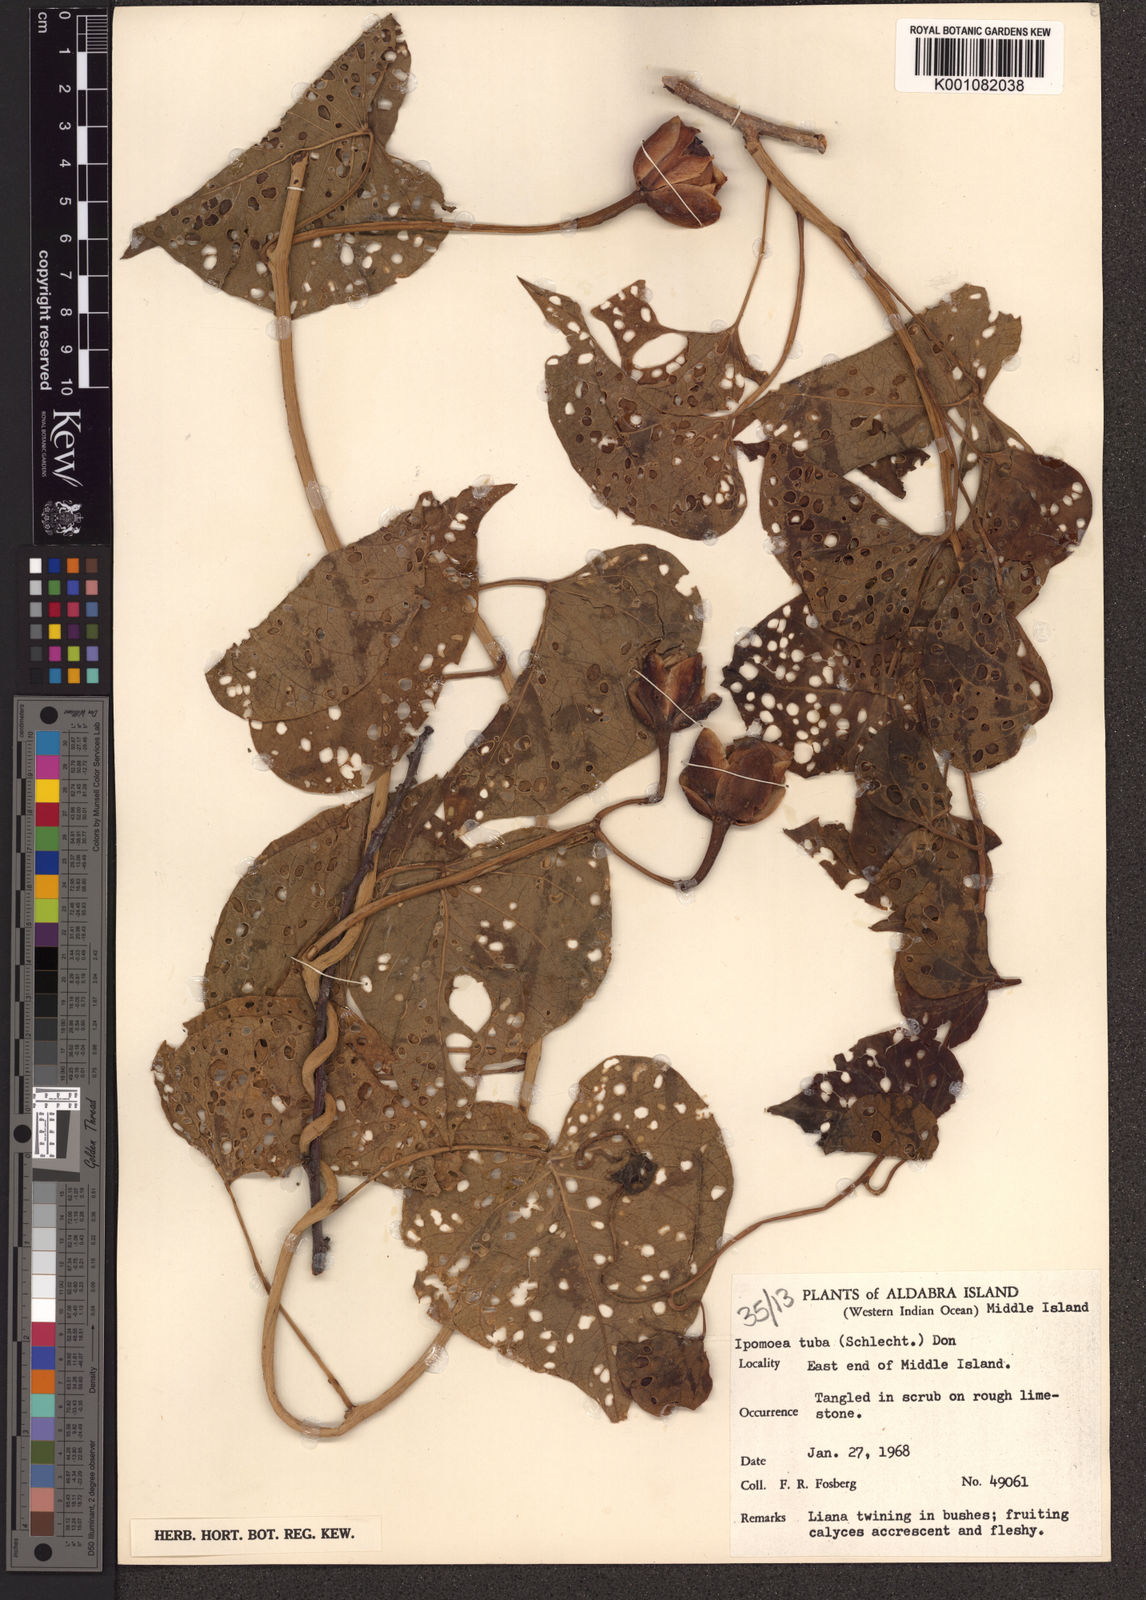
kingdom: Plantae
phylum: Tracheophyta
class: Magnoliopsida
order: Solanales
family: Convolvulaceae
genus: Ipomoea
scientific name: Ipomoea violacea
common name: Beach moonflower
